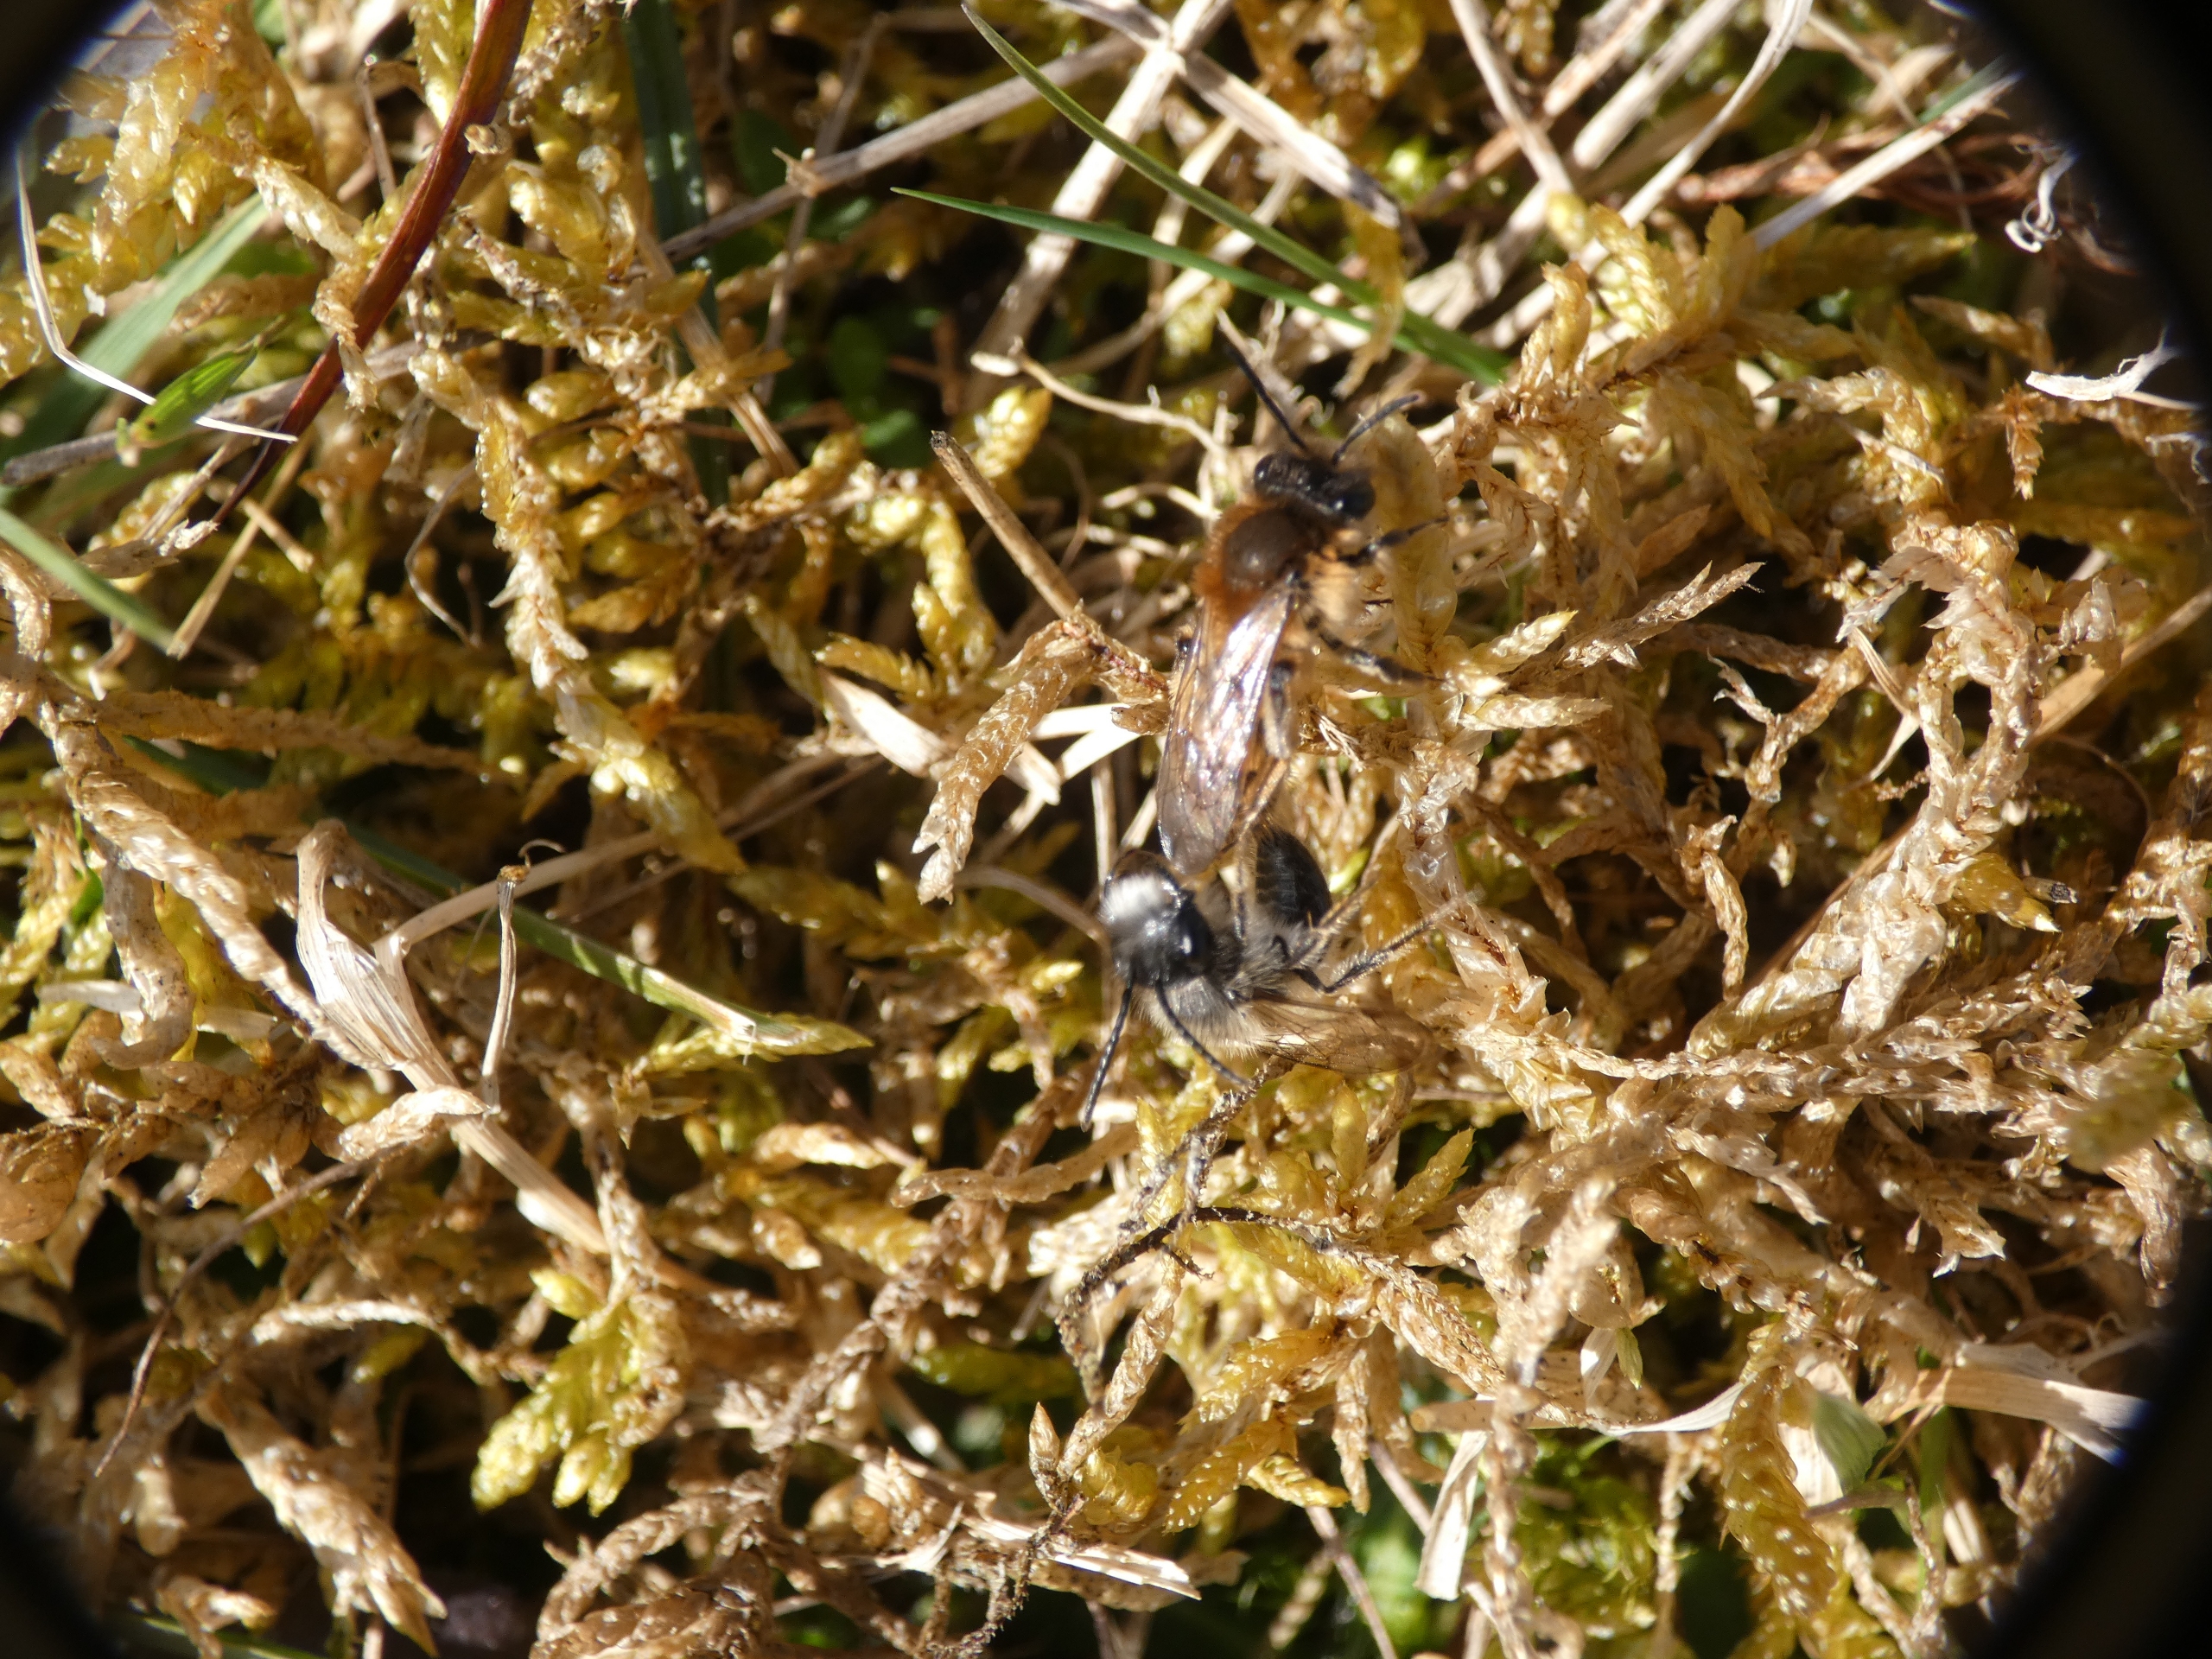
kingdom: Animalia
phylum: Arthropoda
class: Insecta
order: Hymenoptera
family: Andrenidae
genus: Andrena
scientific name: Andrena praecox
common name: Forårsjordbi
